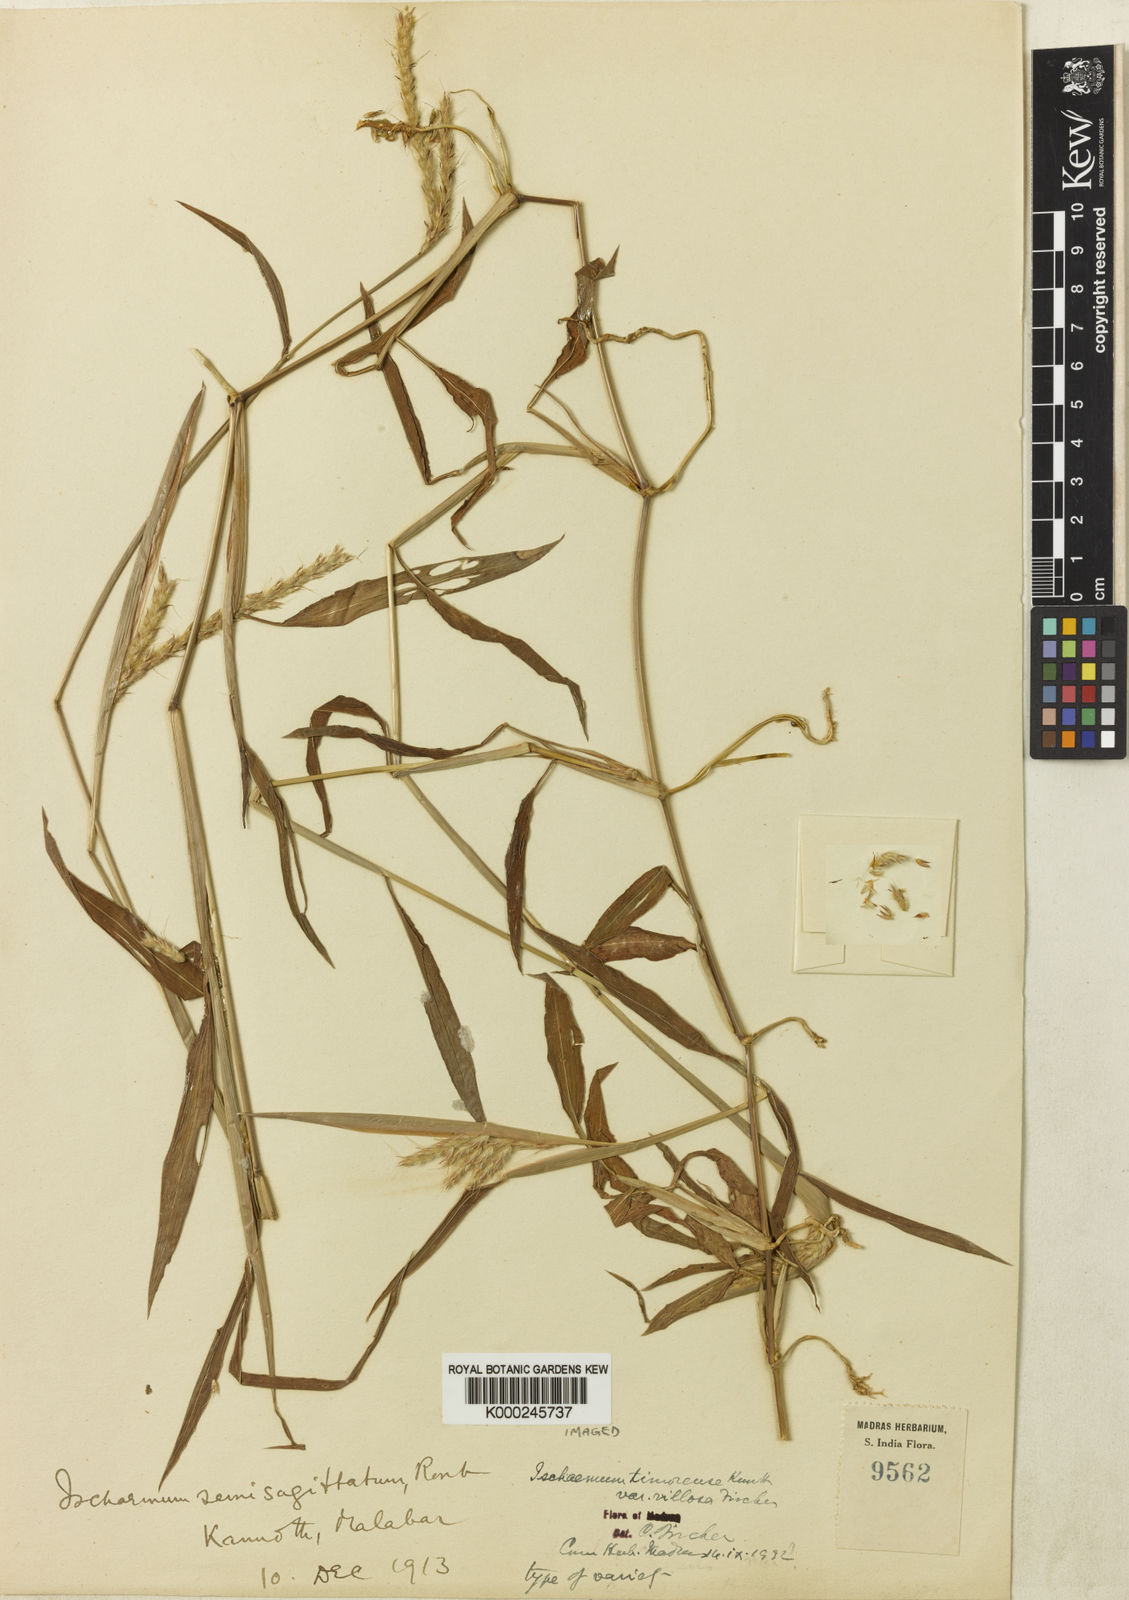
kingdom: Plantae
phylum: Tracheophyta
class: Liliopsida
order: Poales
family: Poaceae
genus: Ischaemum
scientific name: Ischaemum timorense
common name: Stalkleaf murainagrass
